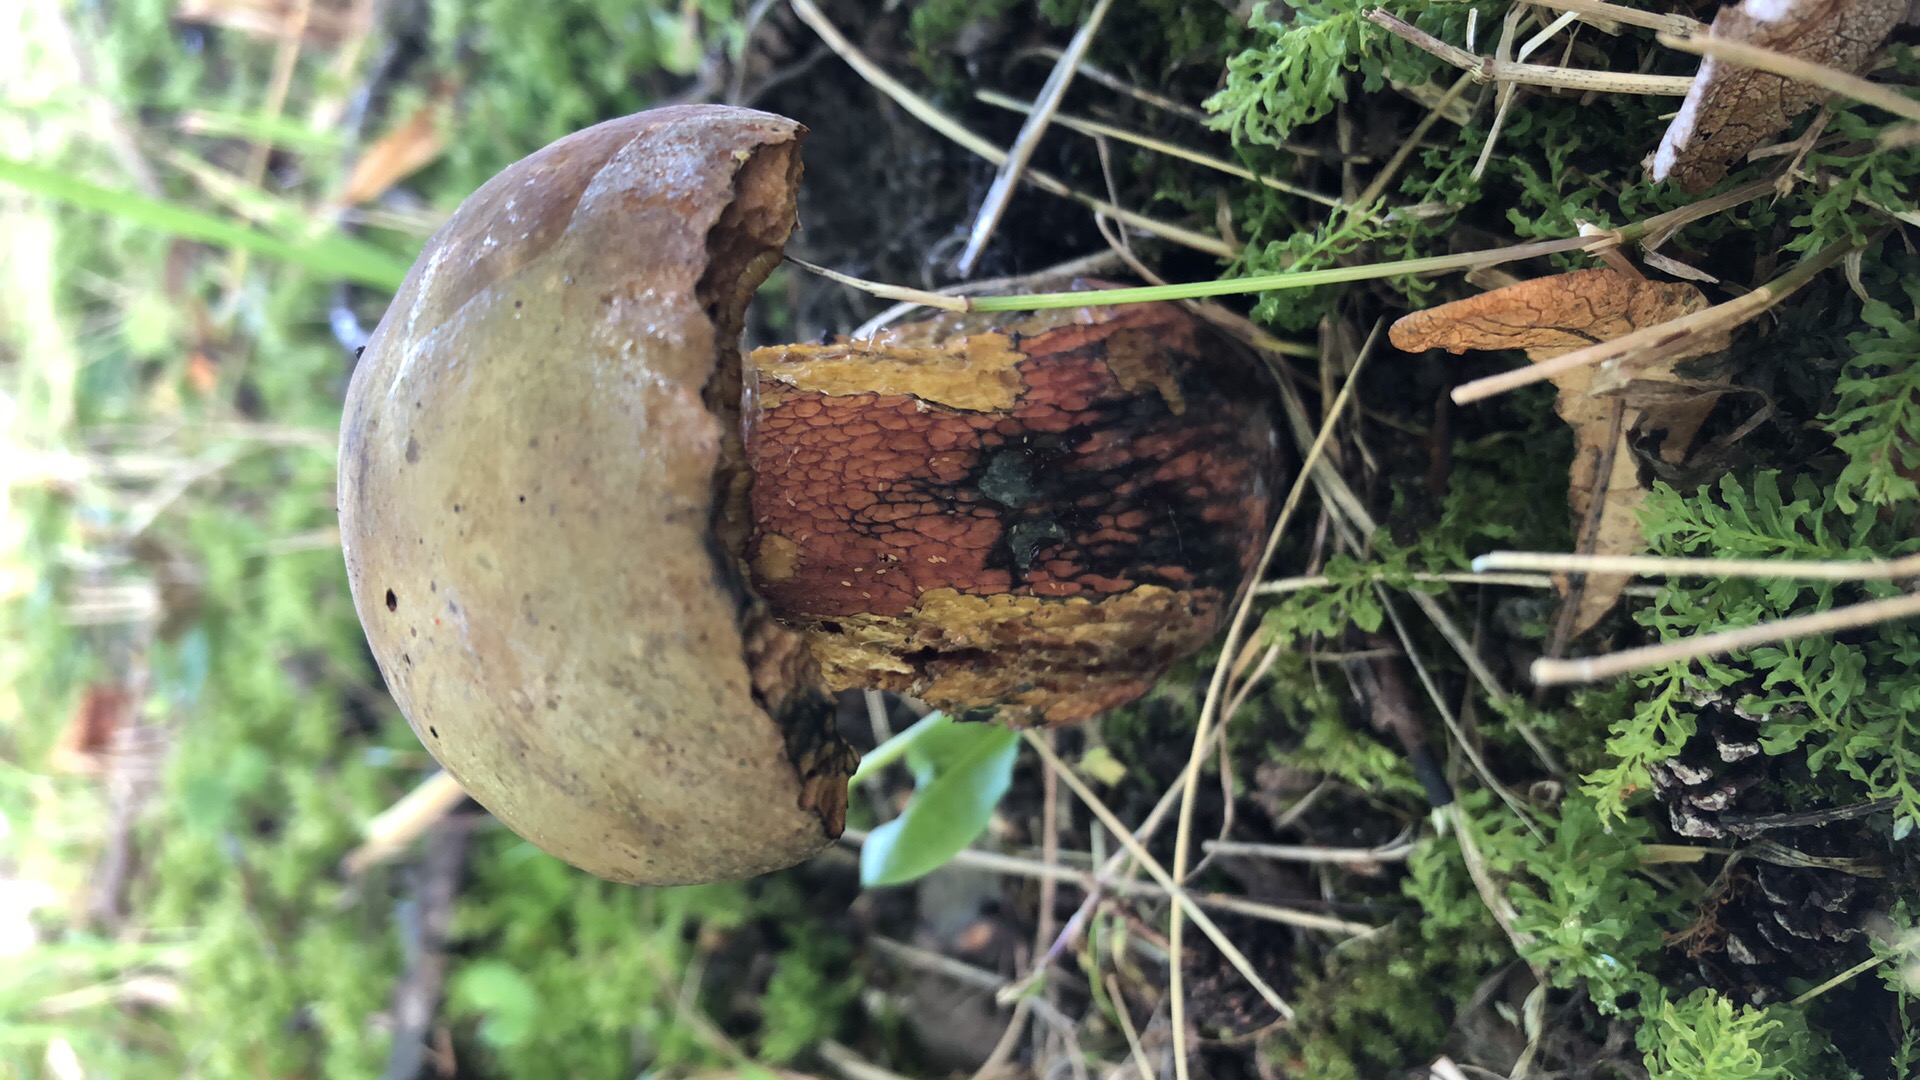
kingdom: Fungi
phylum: Basidiomycota
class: Agaricomycetes
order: Boletales
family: Boletaceae
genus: Suillellus
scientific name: Suillellus luridus
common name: netstokket indigorørhat
